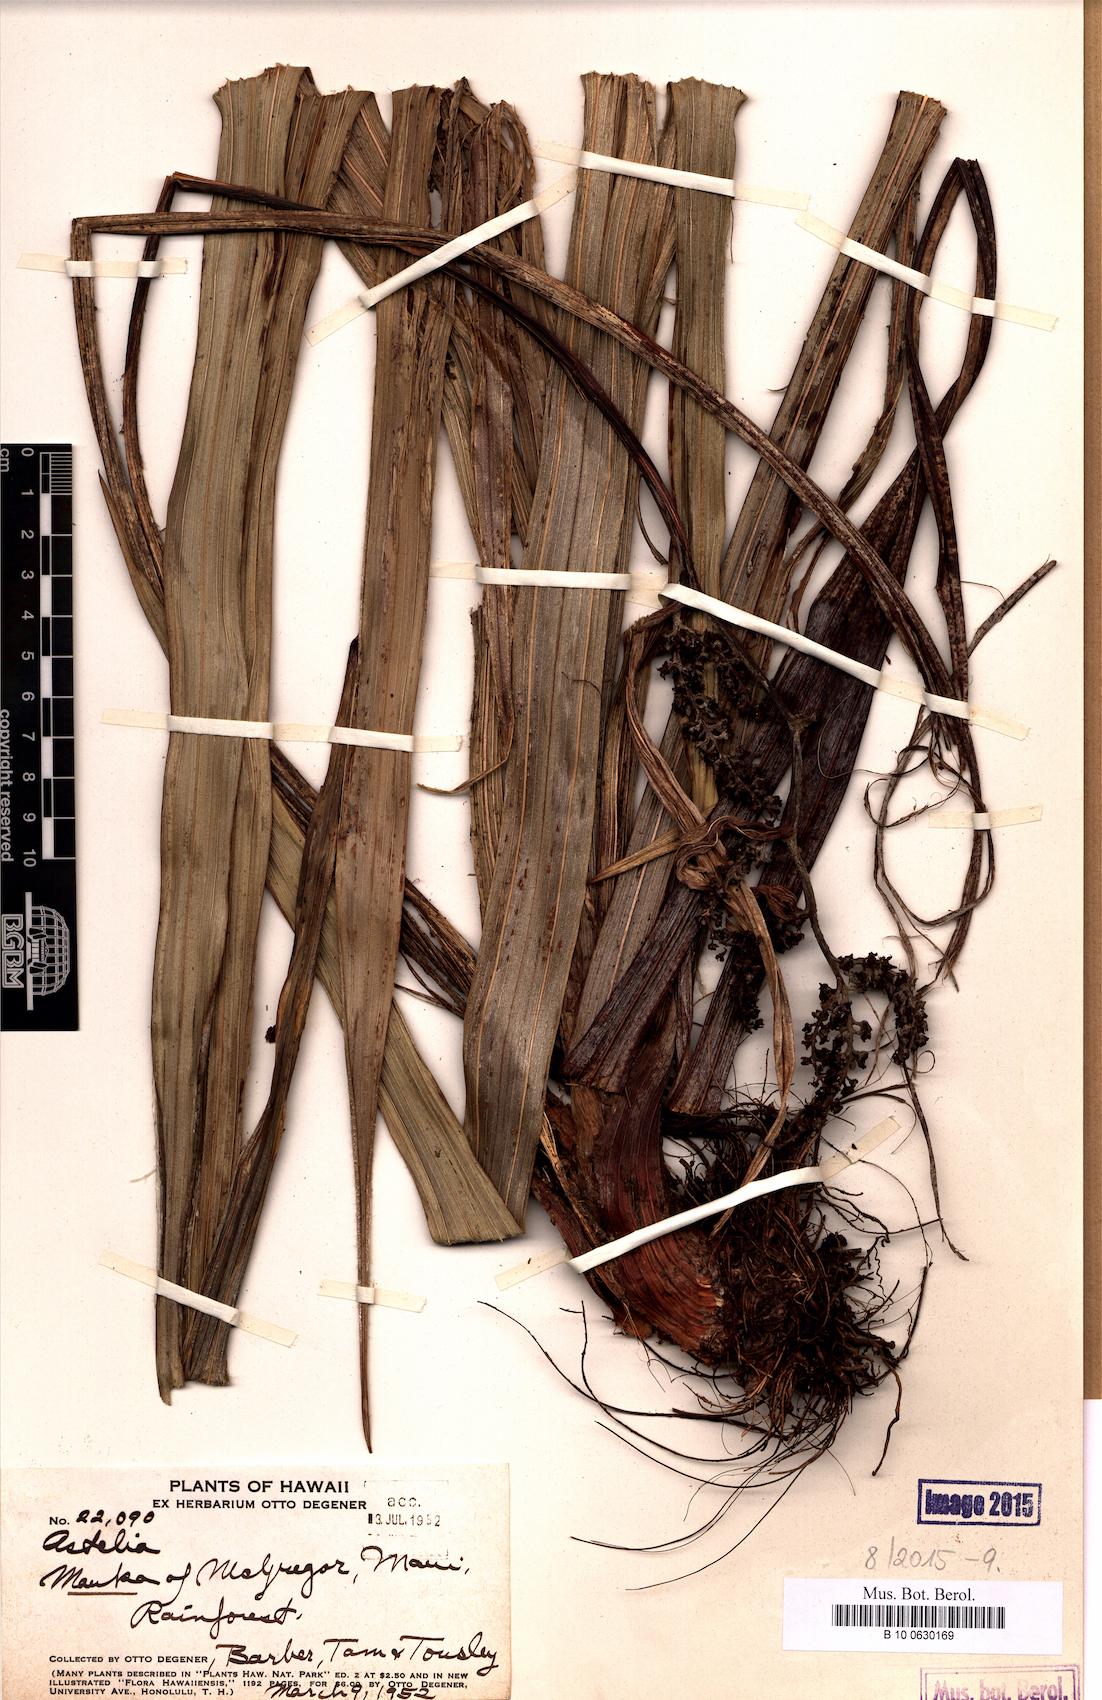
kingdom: Plantae
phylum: Tracheophyta
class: Liliopsida
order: Asparagales
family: Asteliaceae
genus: Astelia
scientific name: Astelia
